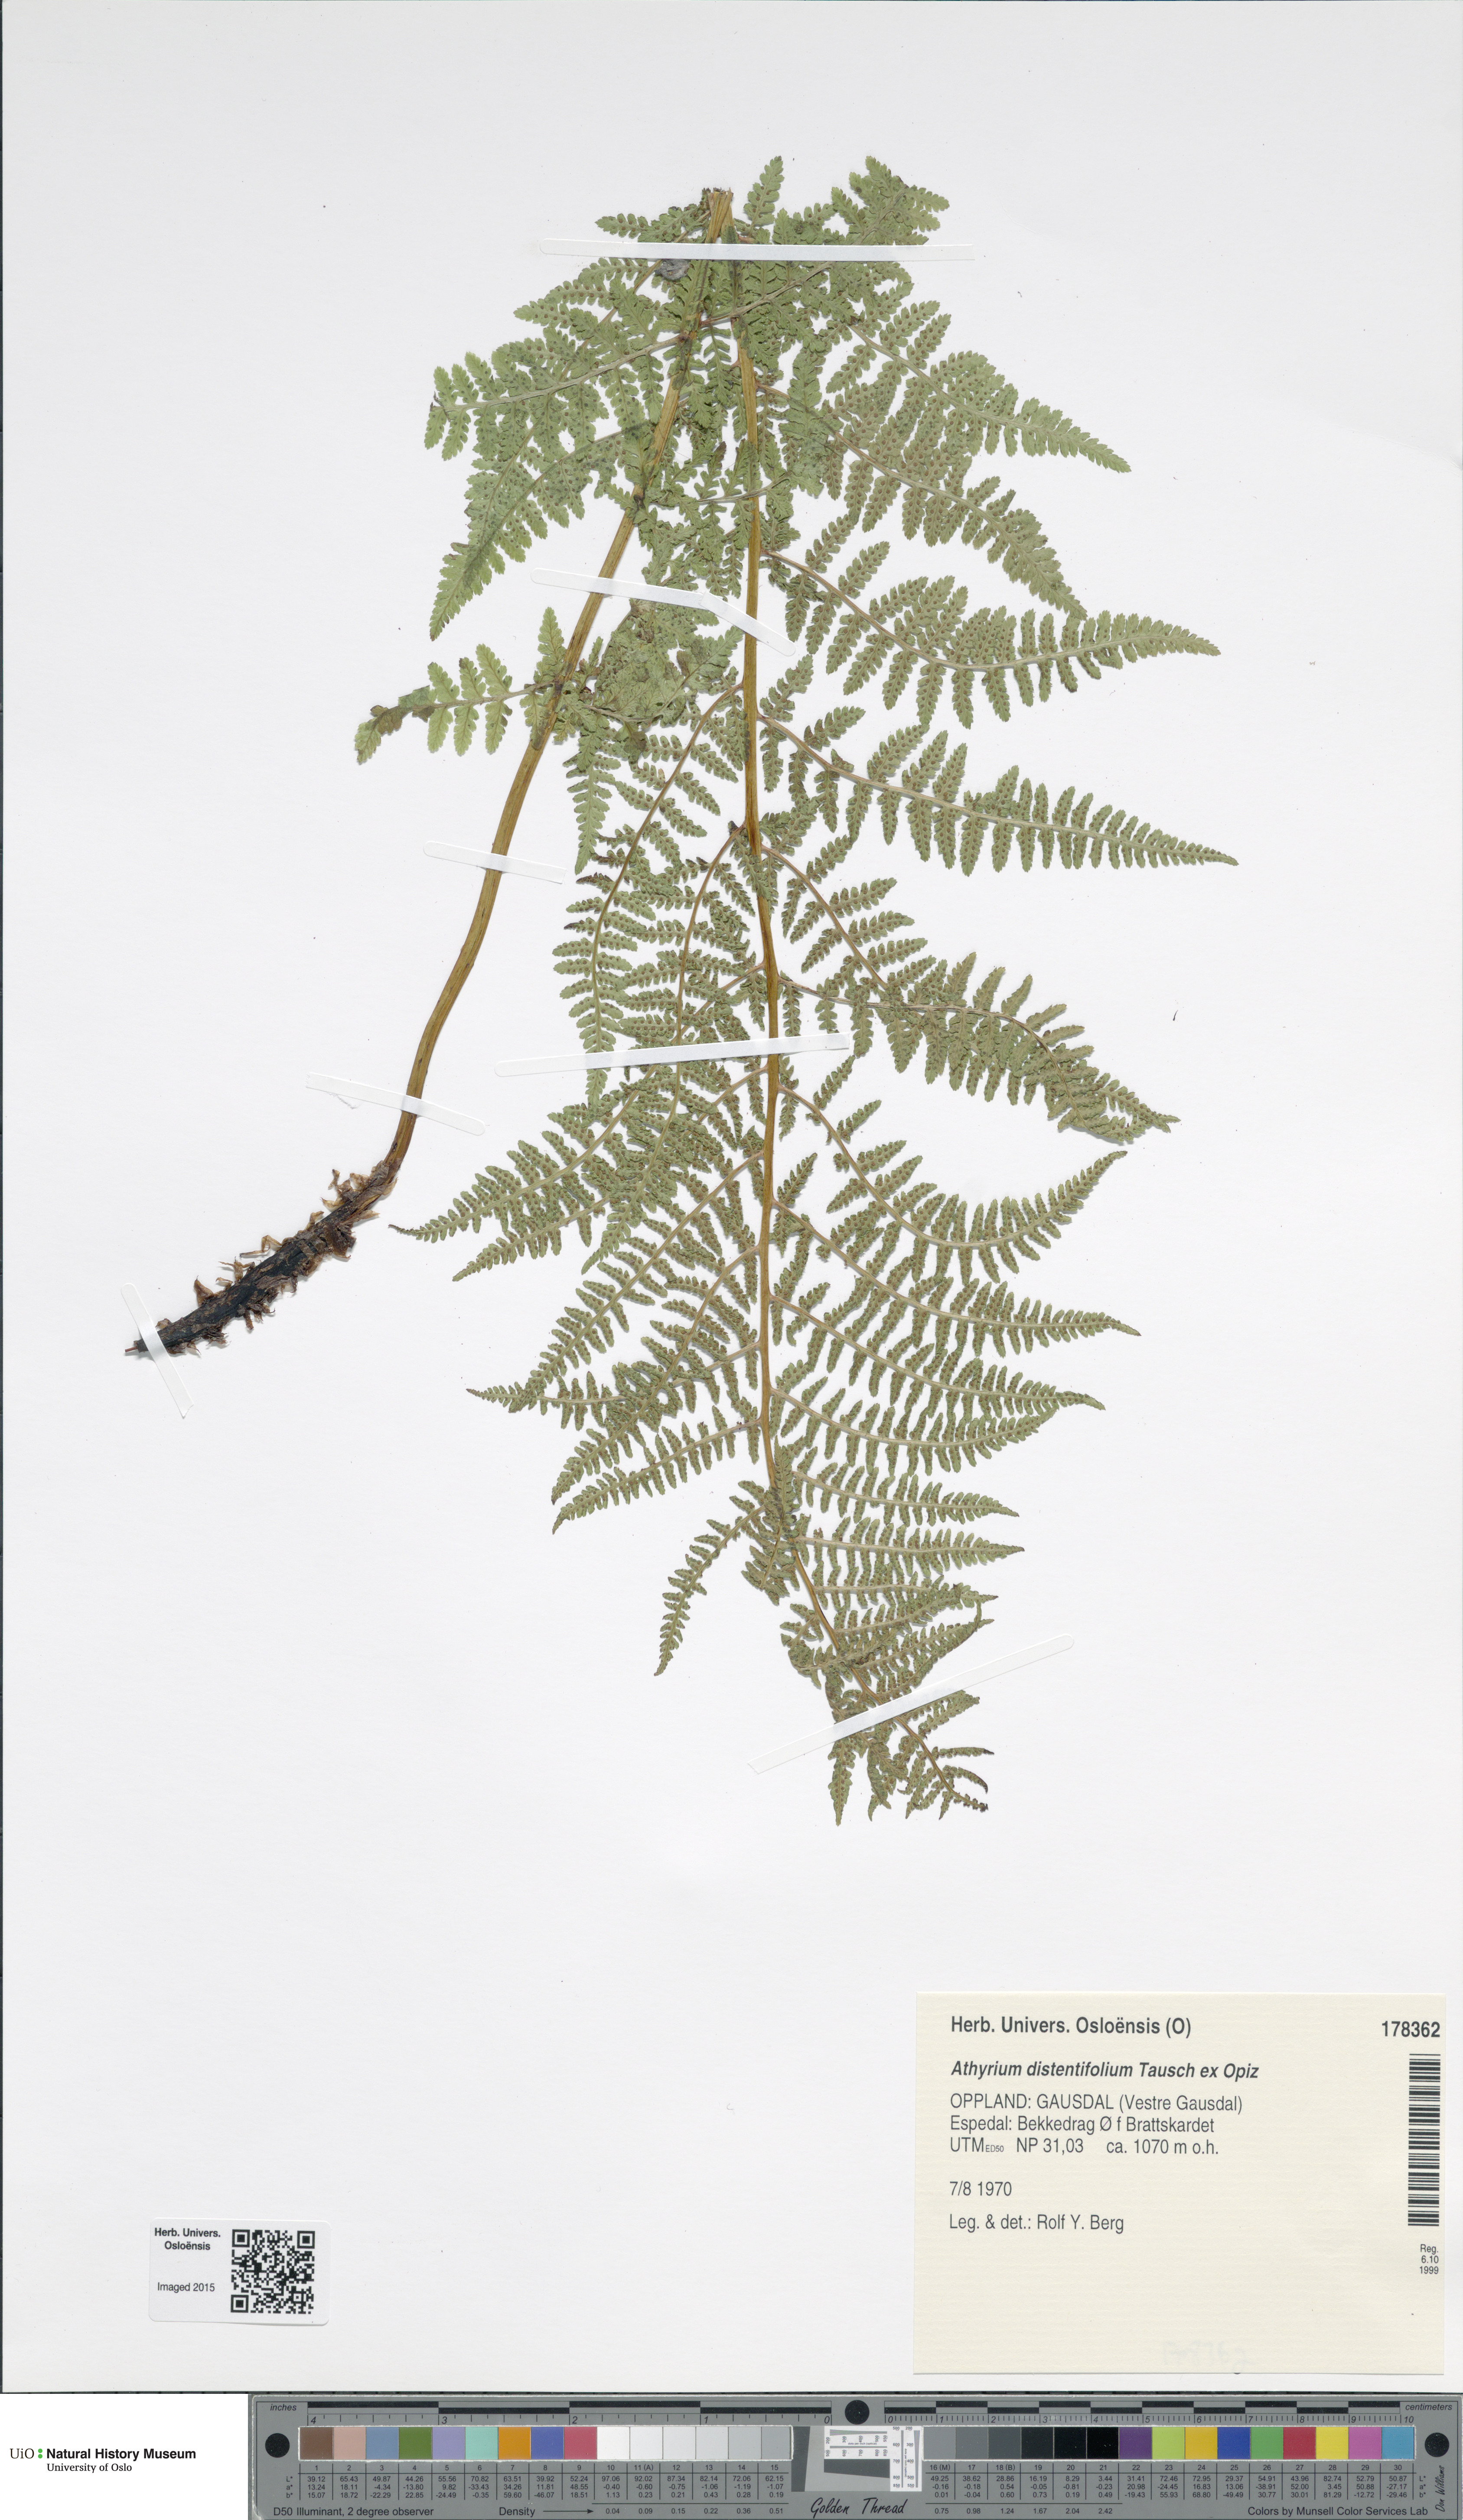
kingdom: Plantae
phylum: Tracheophyta
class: Polypodiopsida
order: Polypodiales
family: Athyriaceae
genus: Pseudathyrium
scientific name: Pseudathyrium alpestre
